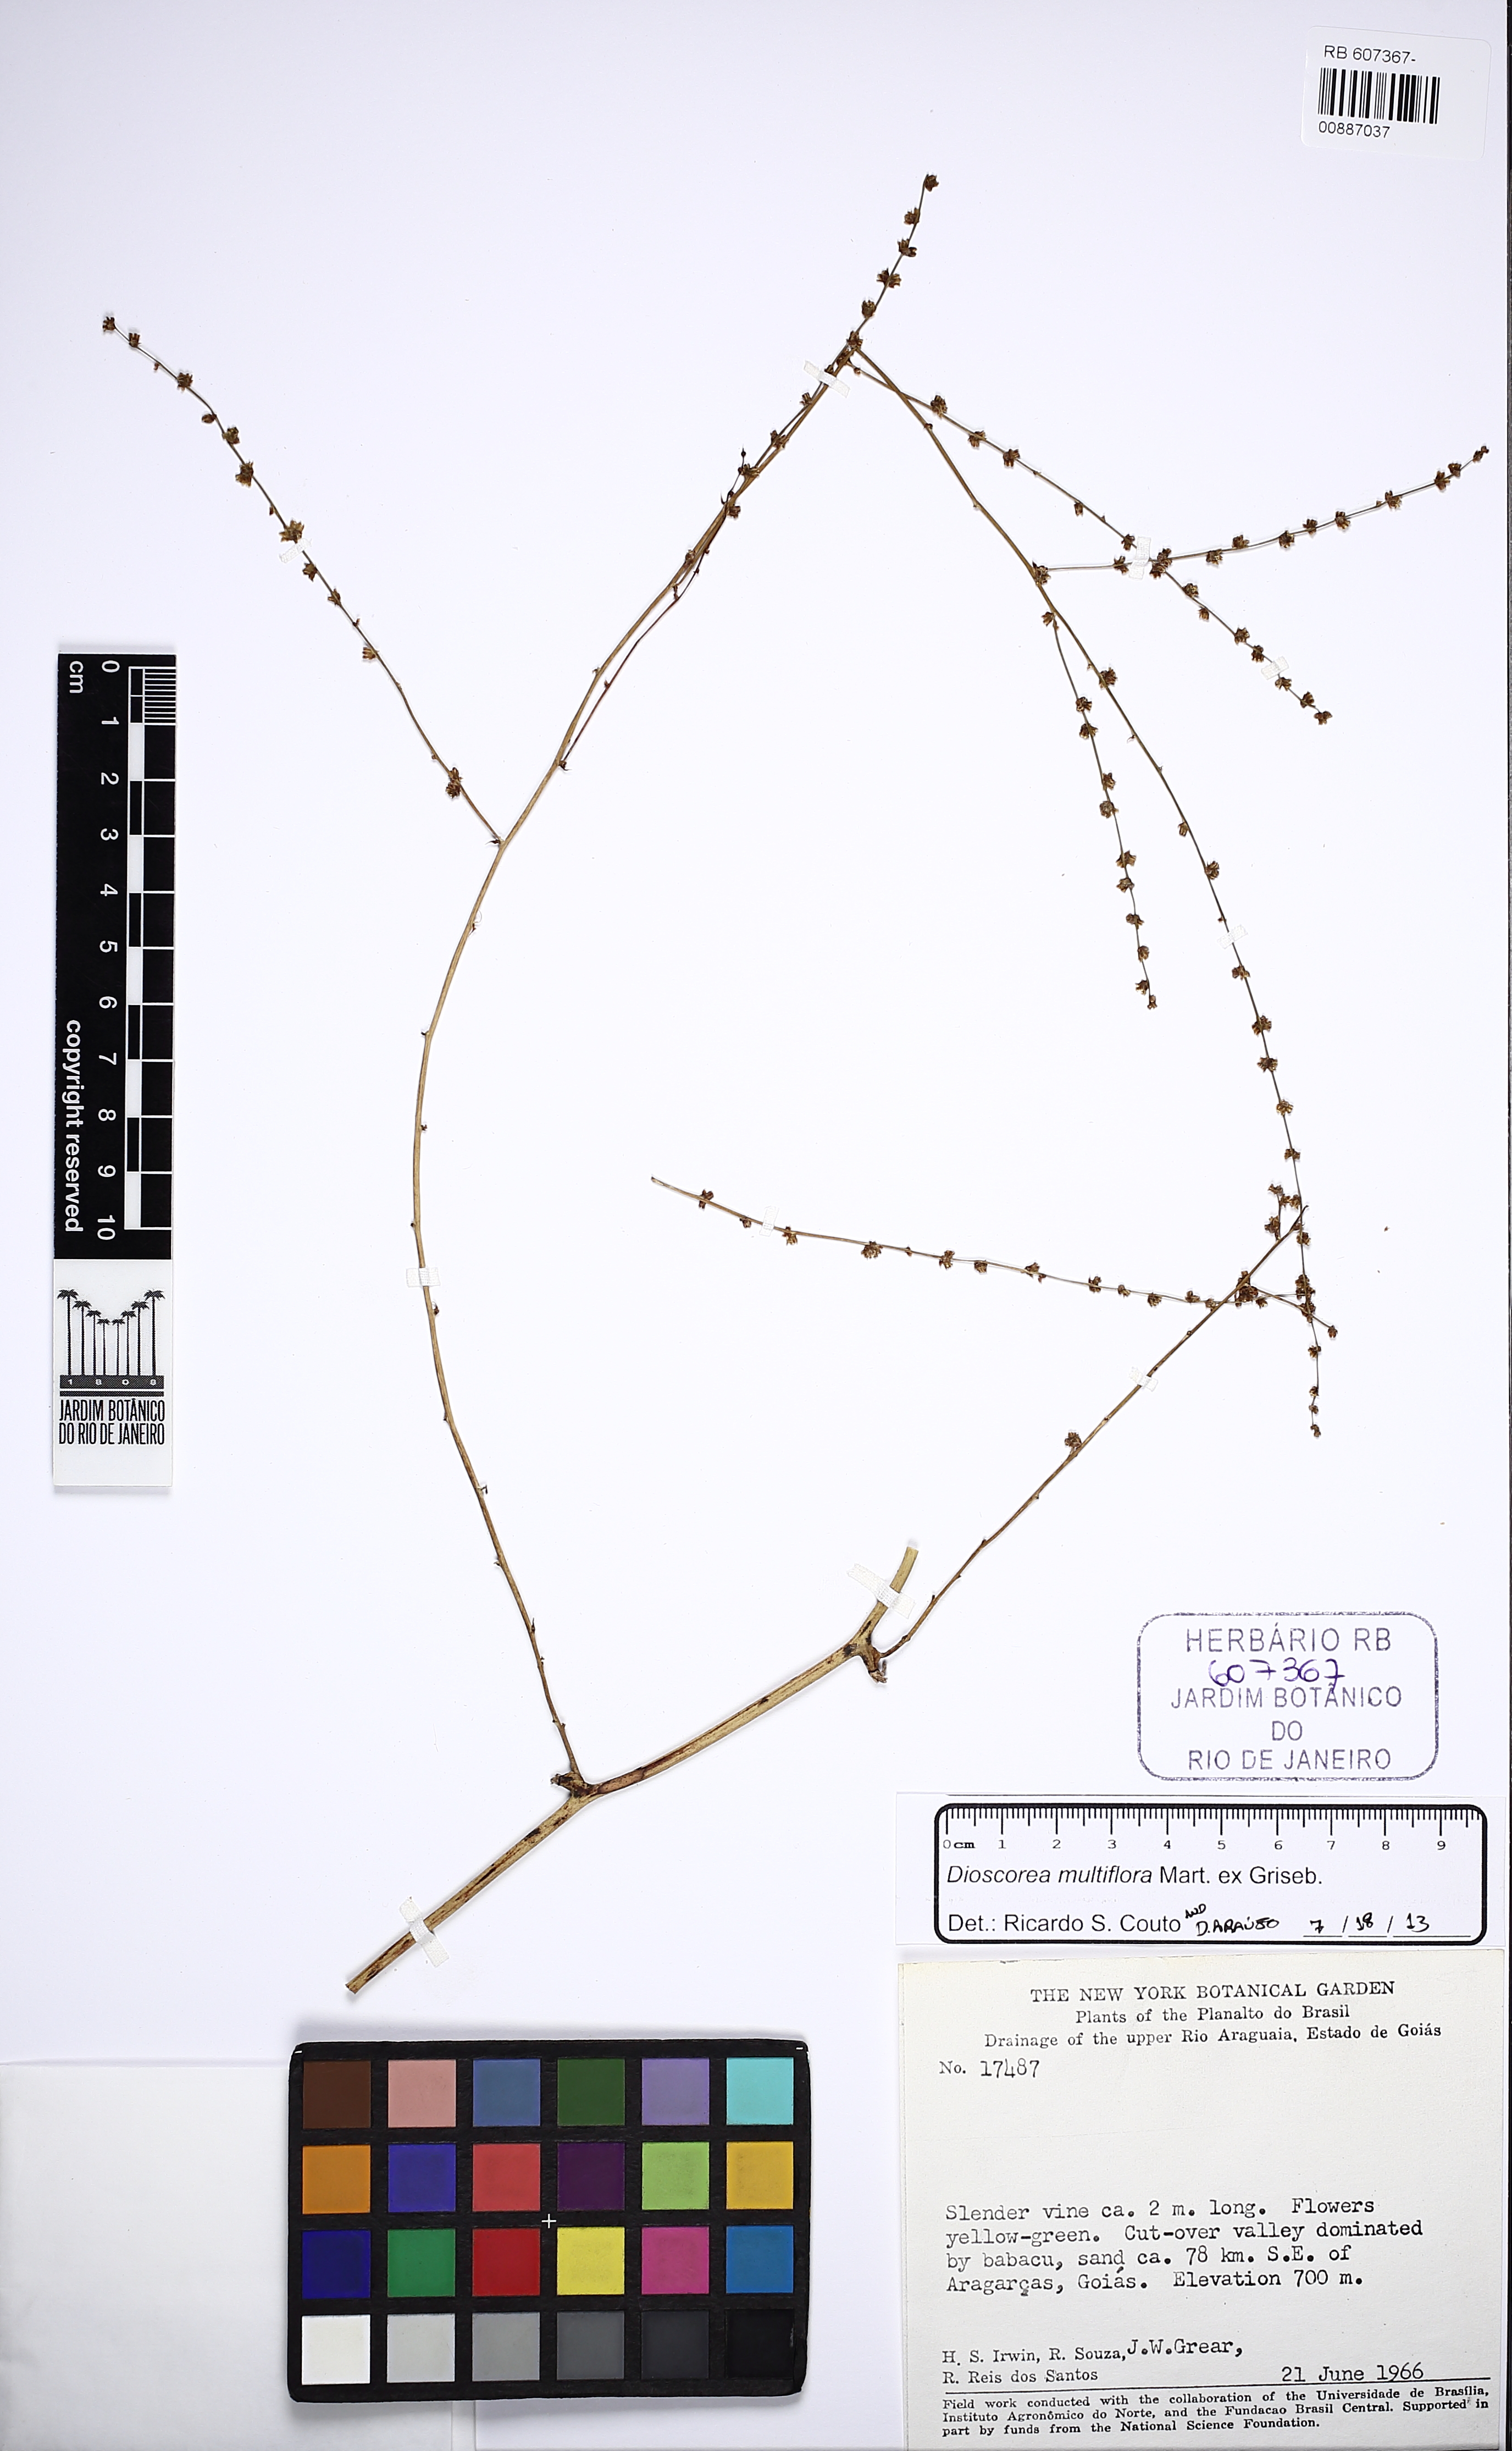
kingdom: Plantae
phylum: Tracheophyta
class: Liliopsida
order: Dioscoreales
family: Dioscoreaceae
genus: Dioscorea
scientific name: Dioscorea multiflora
